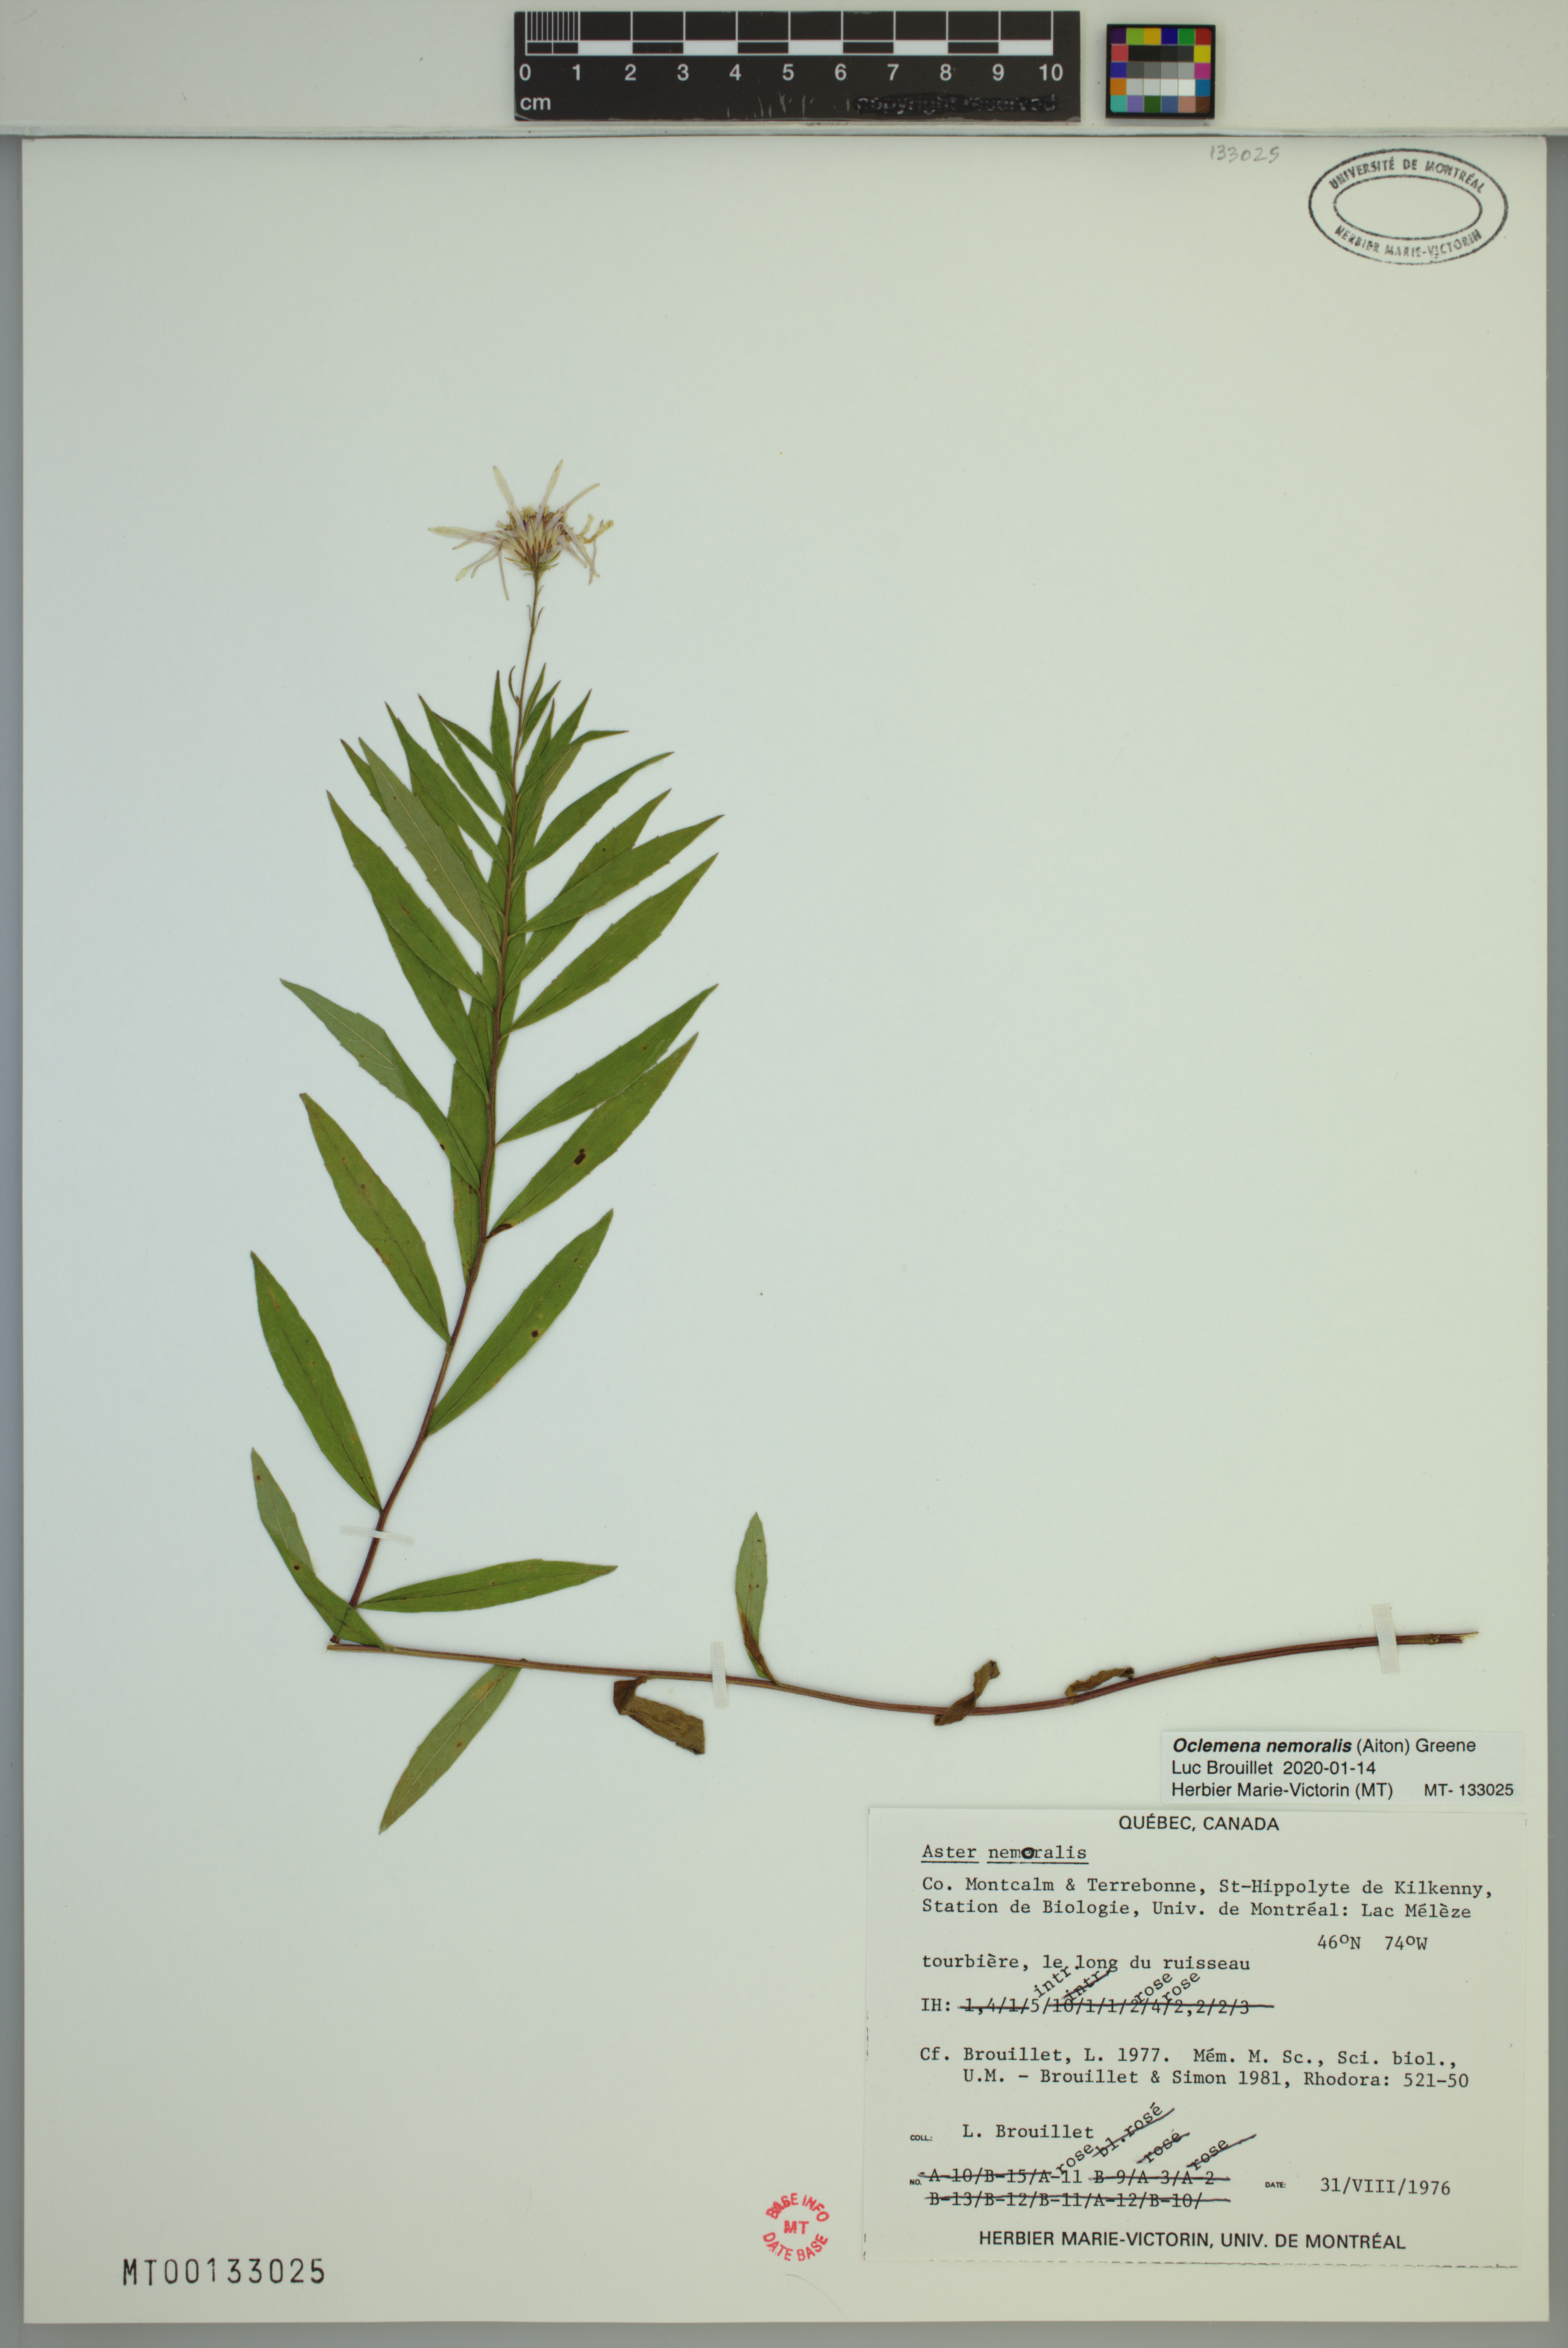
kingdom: Plantae
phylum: Tracheophyta
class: Magnoliopsida
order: Asterales
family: Asteraceae
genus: Oclemena
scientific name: Oclemena nemoralis
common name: Bog aster
